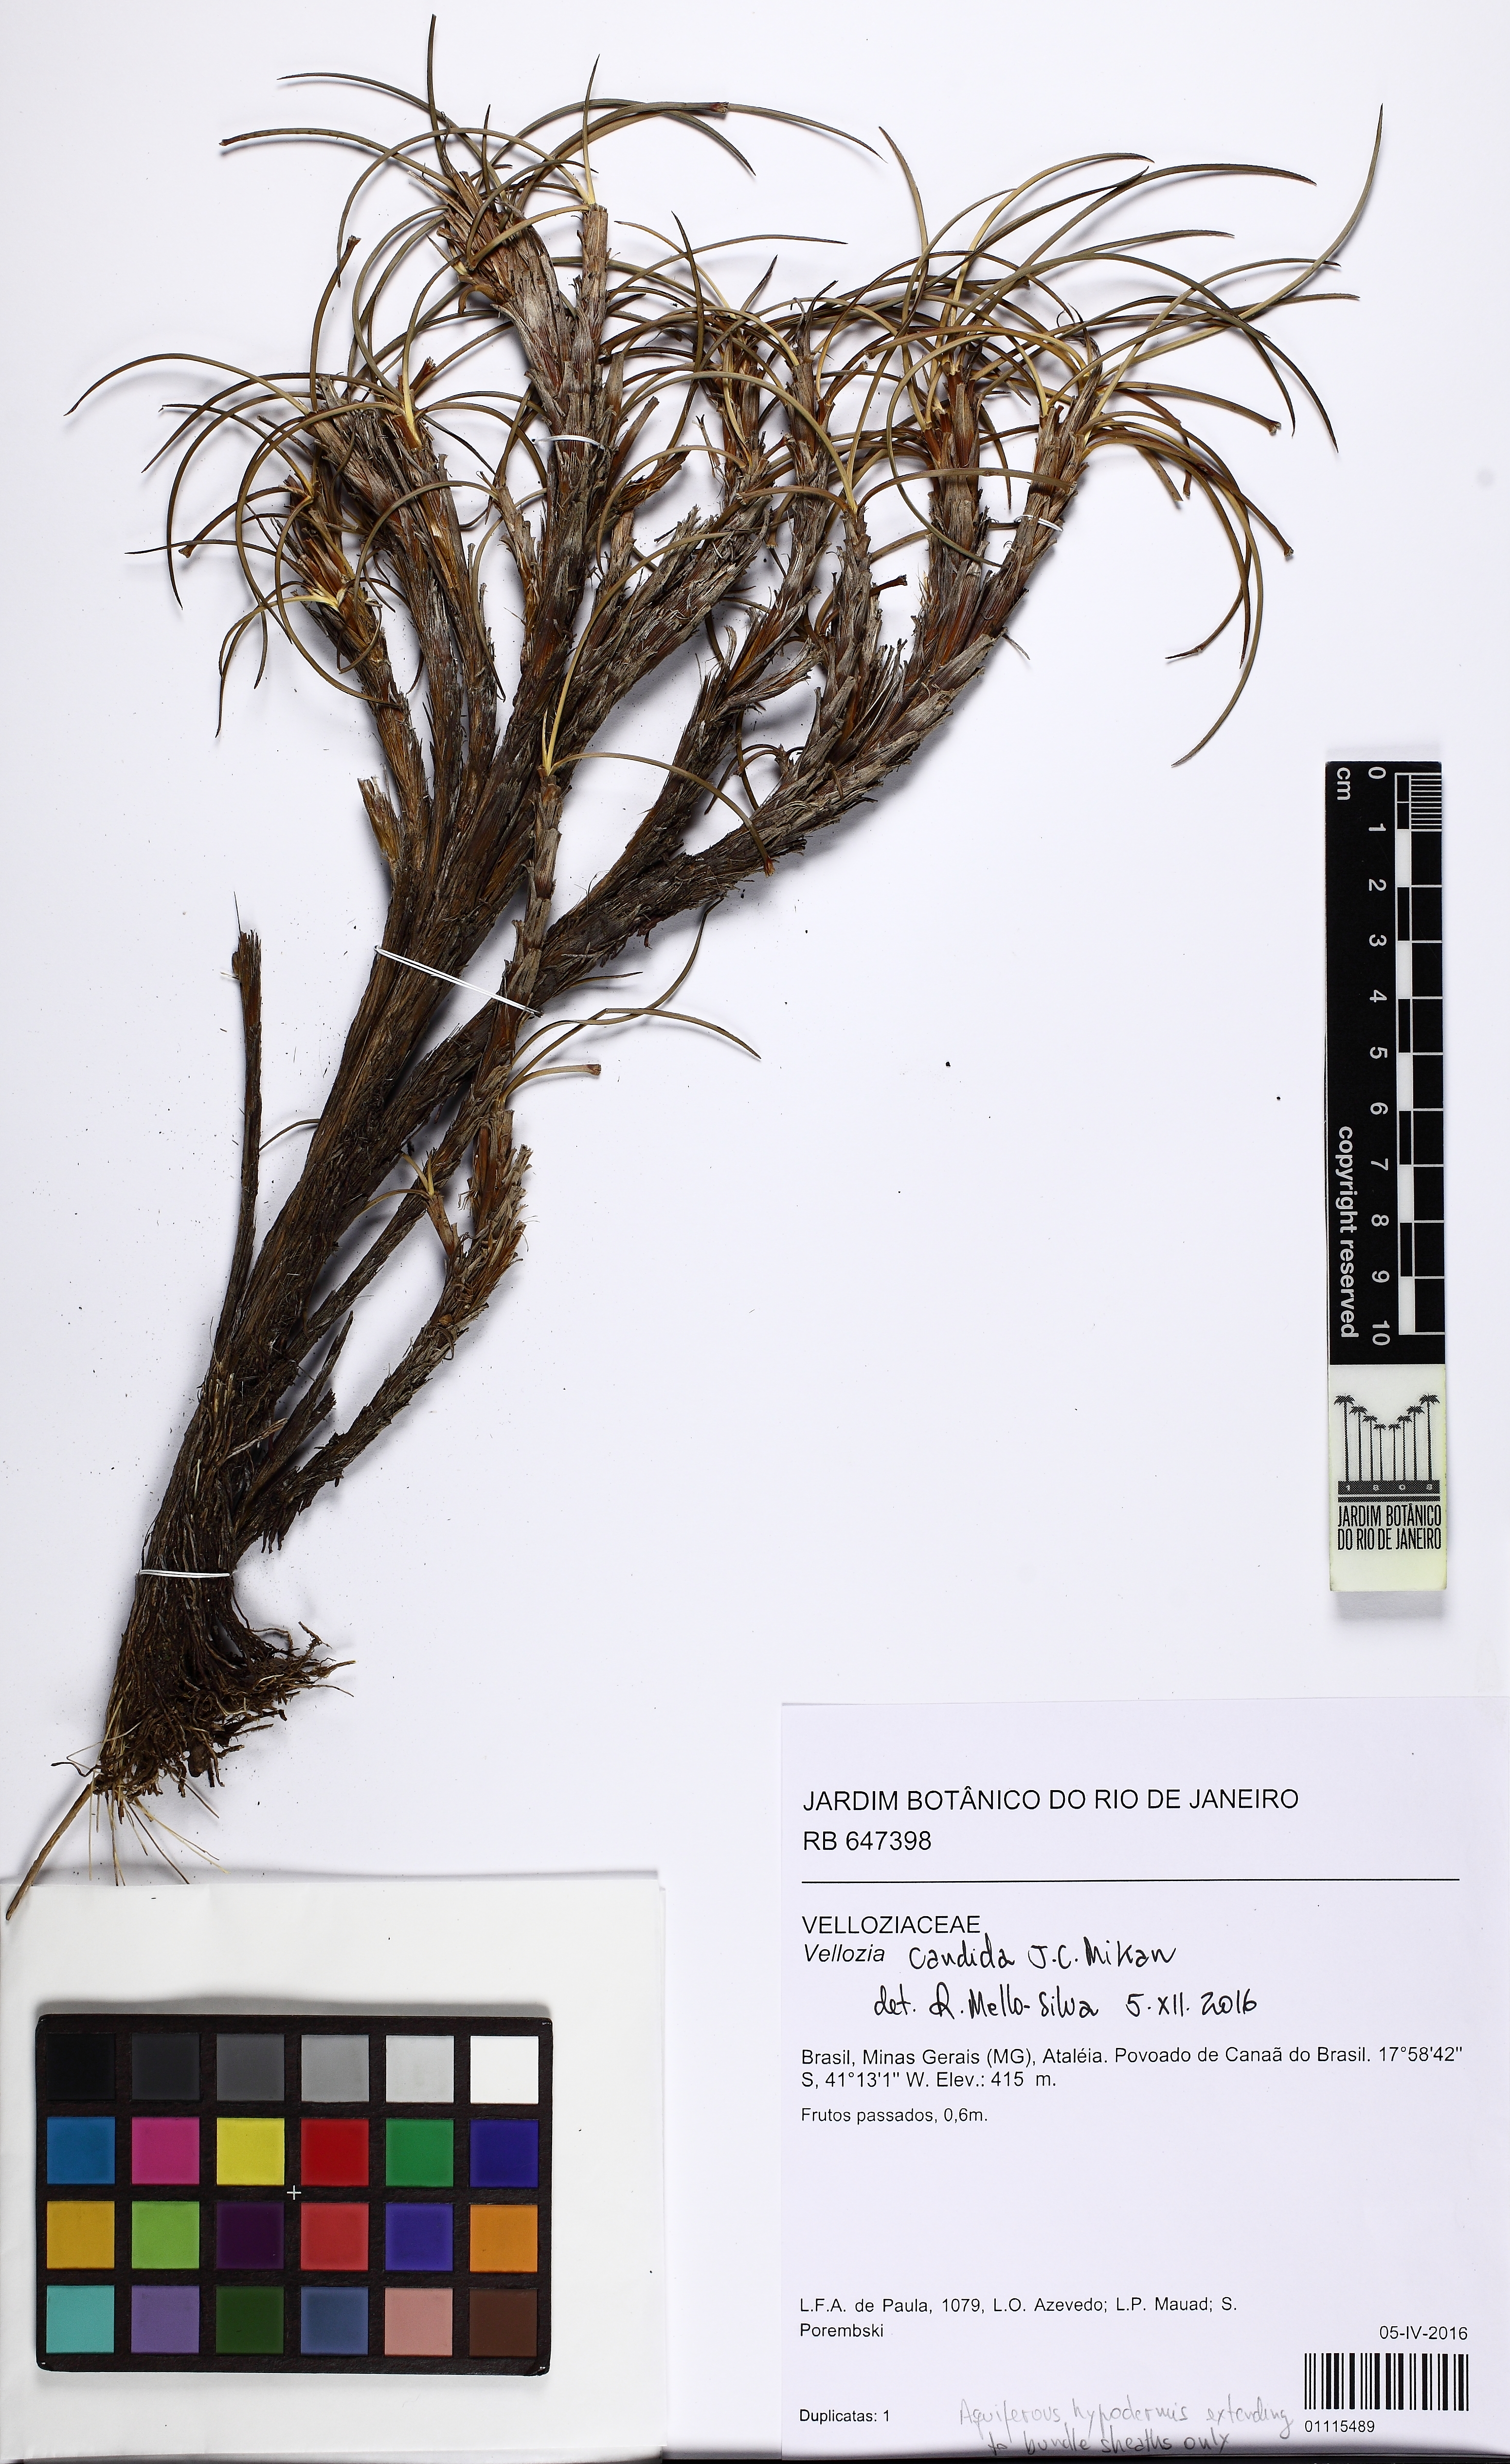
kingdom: Plantae
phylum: Tracheophyta
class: Liliopsida
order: Pandanales
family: Velloziaceae
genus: Vellozia
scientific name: Vellozia candida
